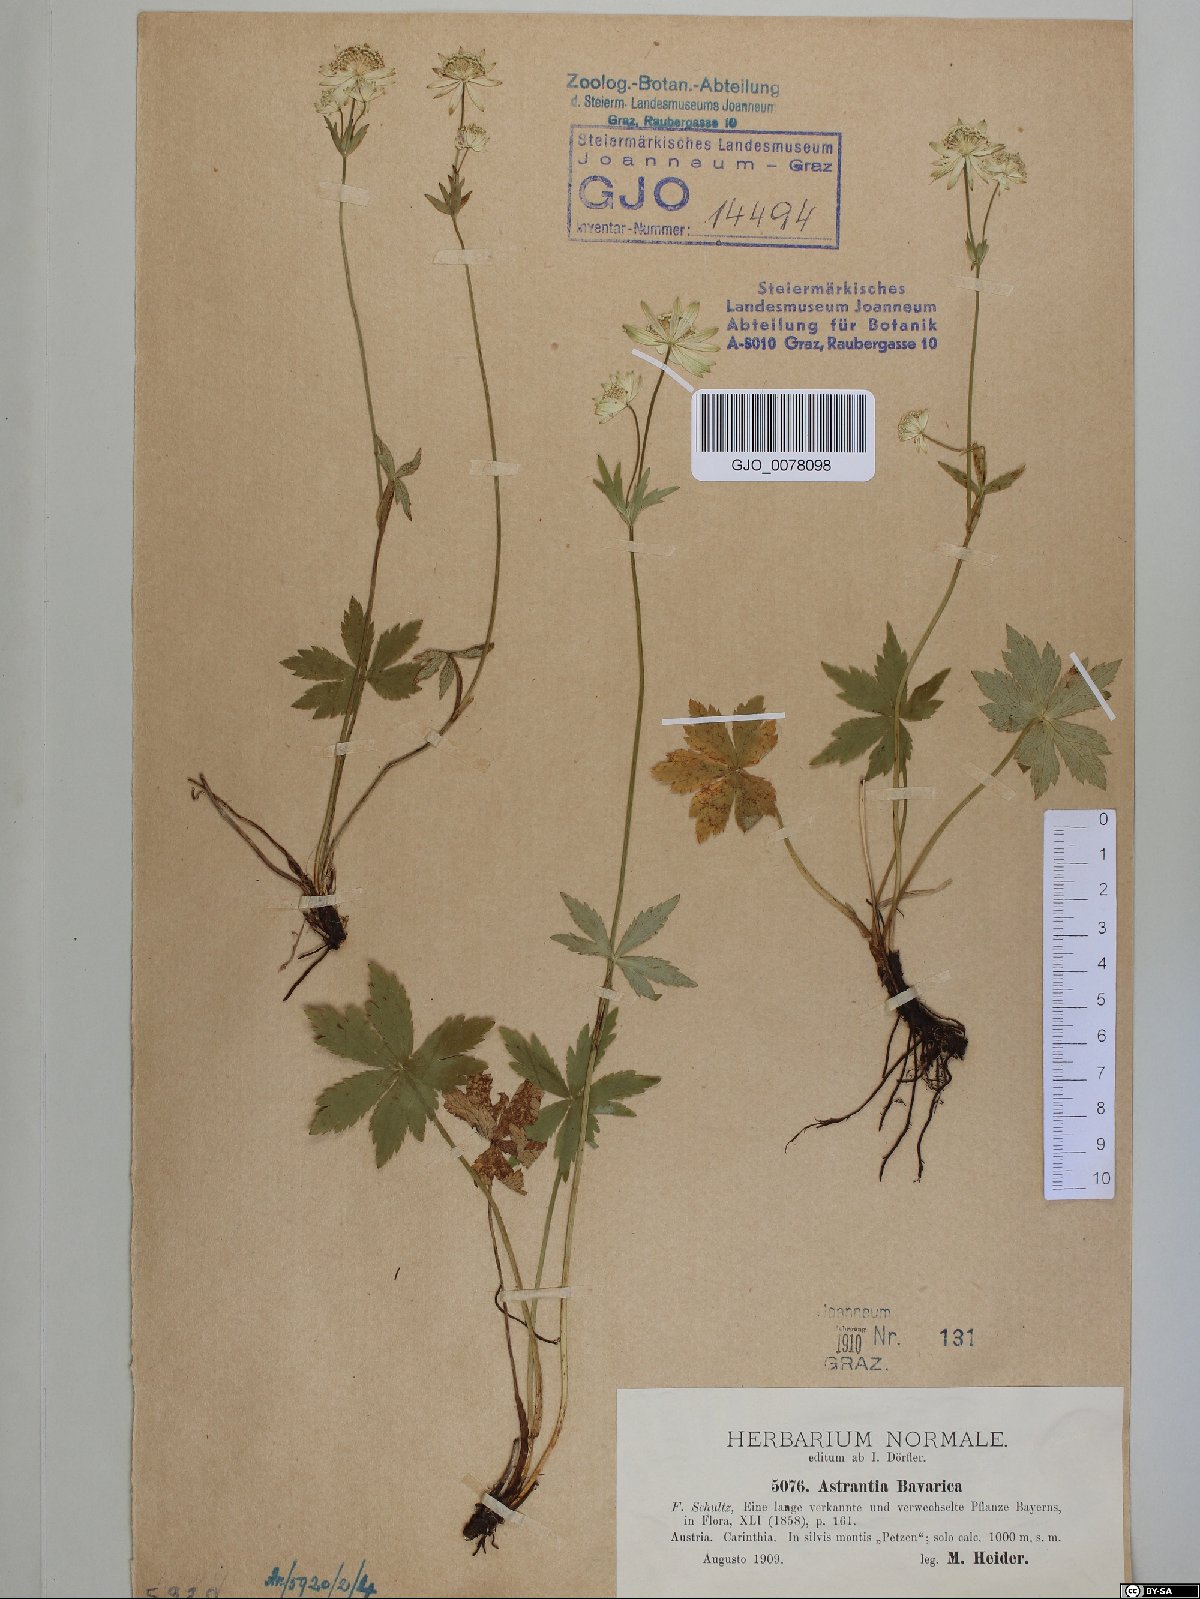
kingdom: Plantae
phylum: Tracheophyta
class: Magnoliopsida
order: Apiales
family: Apiaceae
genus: Astrantia
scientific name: Astrantia bavarica
